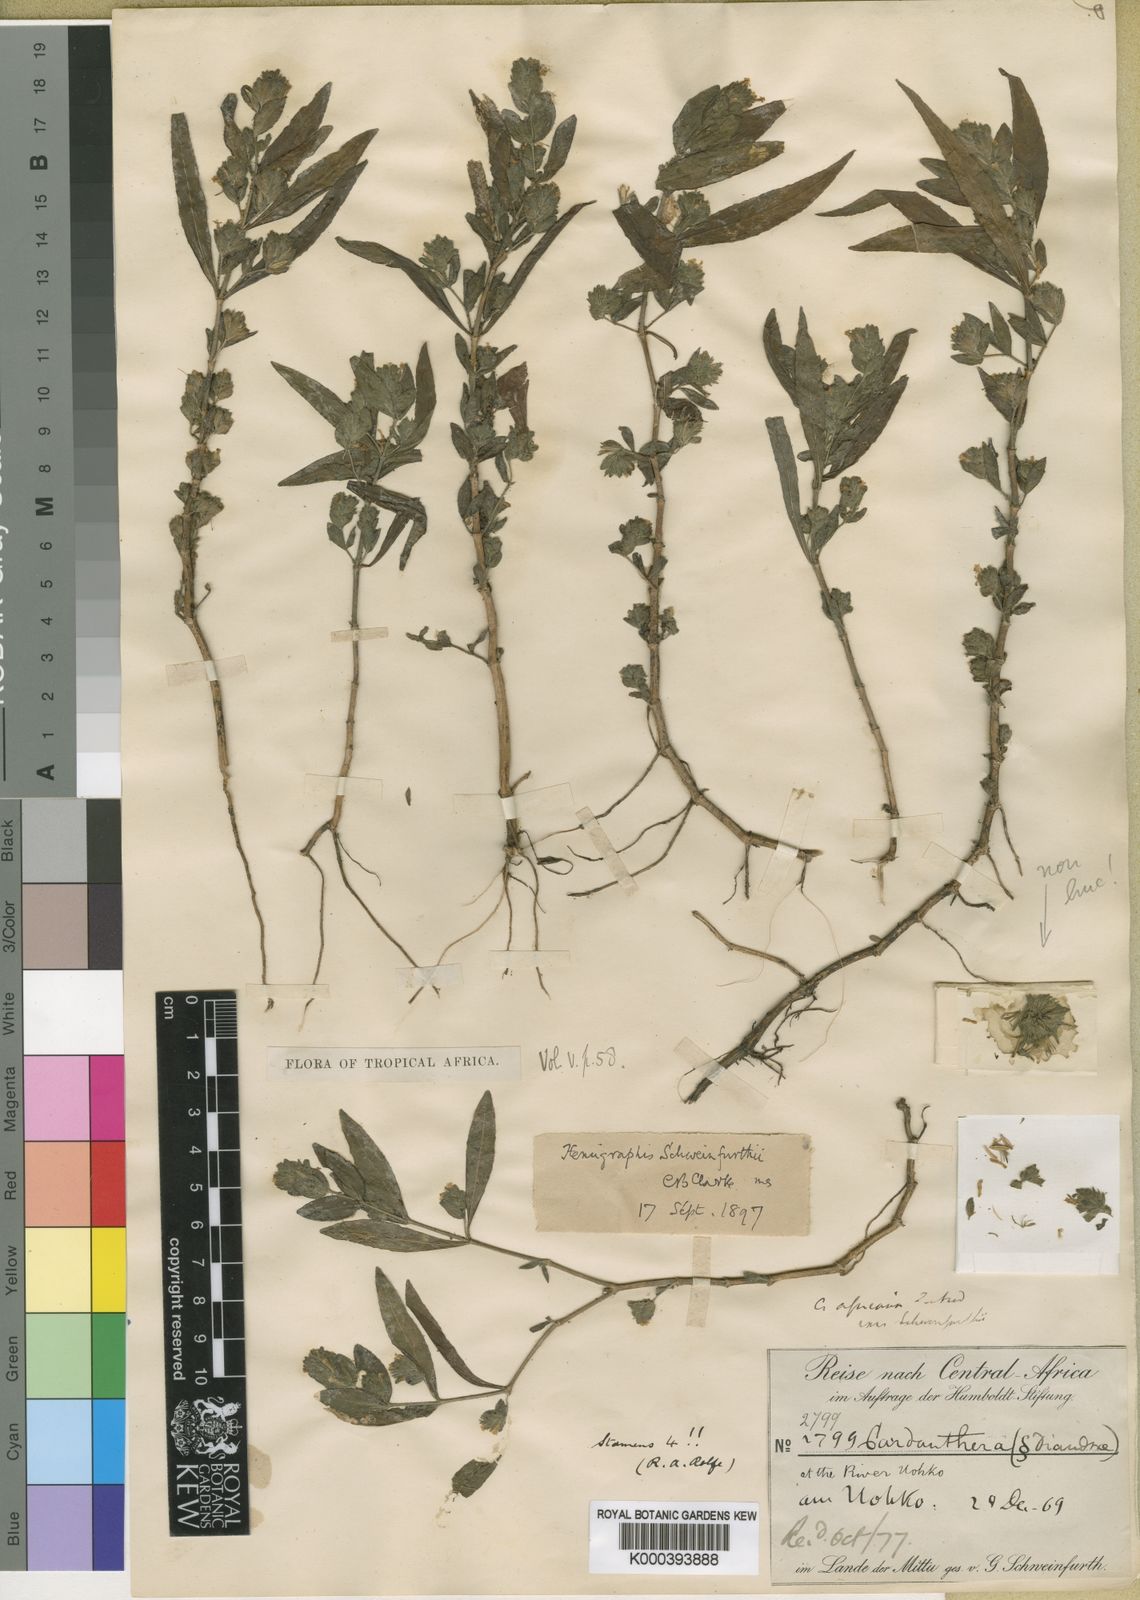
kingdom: Plantae
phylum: Tracheophyta
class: Magnoliopsida
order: Lamiales
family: Acanthaceae
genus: Hygrophila
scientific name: Hygrophila abyssinica
